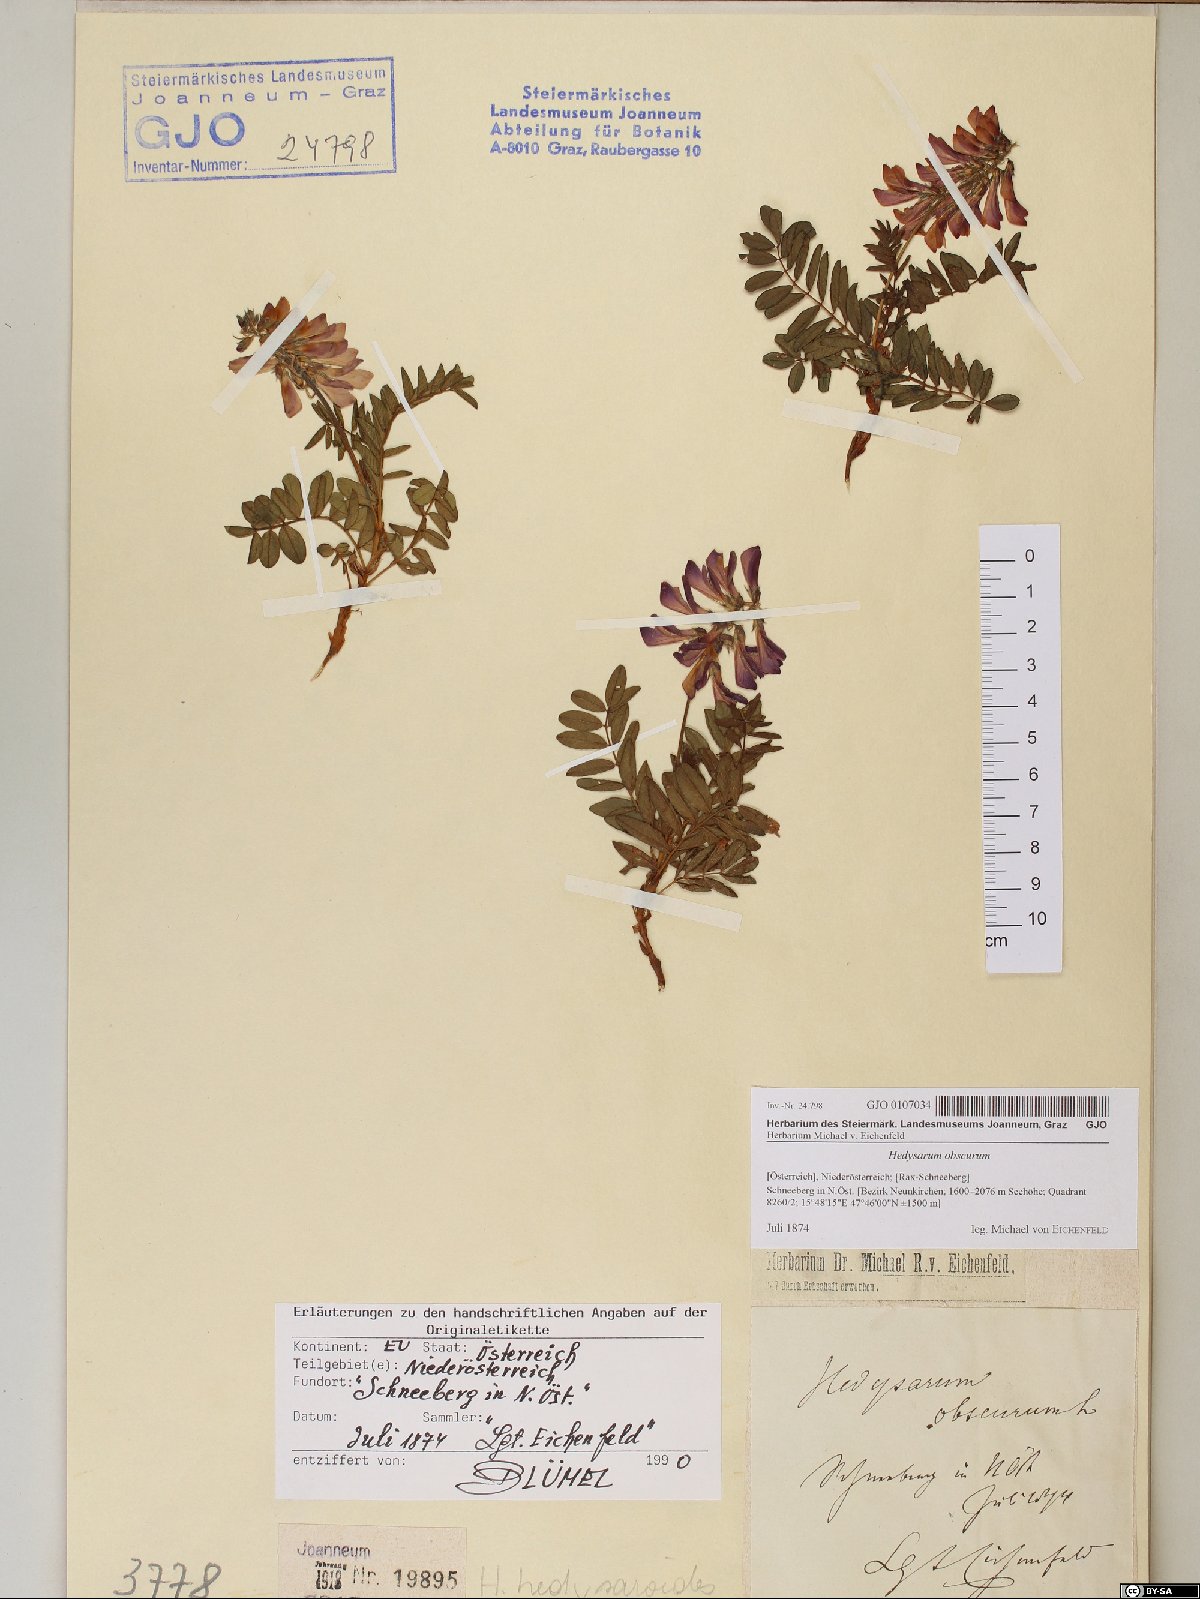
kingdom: Plantae
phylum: Tracheophyta
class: Magnoliopsida
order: Fabales
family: Fabaceae
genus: Hedysarum
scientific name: Hedysarum hedysaroides
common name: Alpine french-honeysuckle
